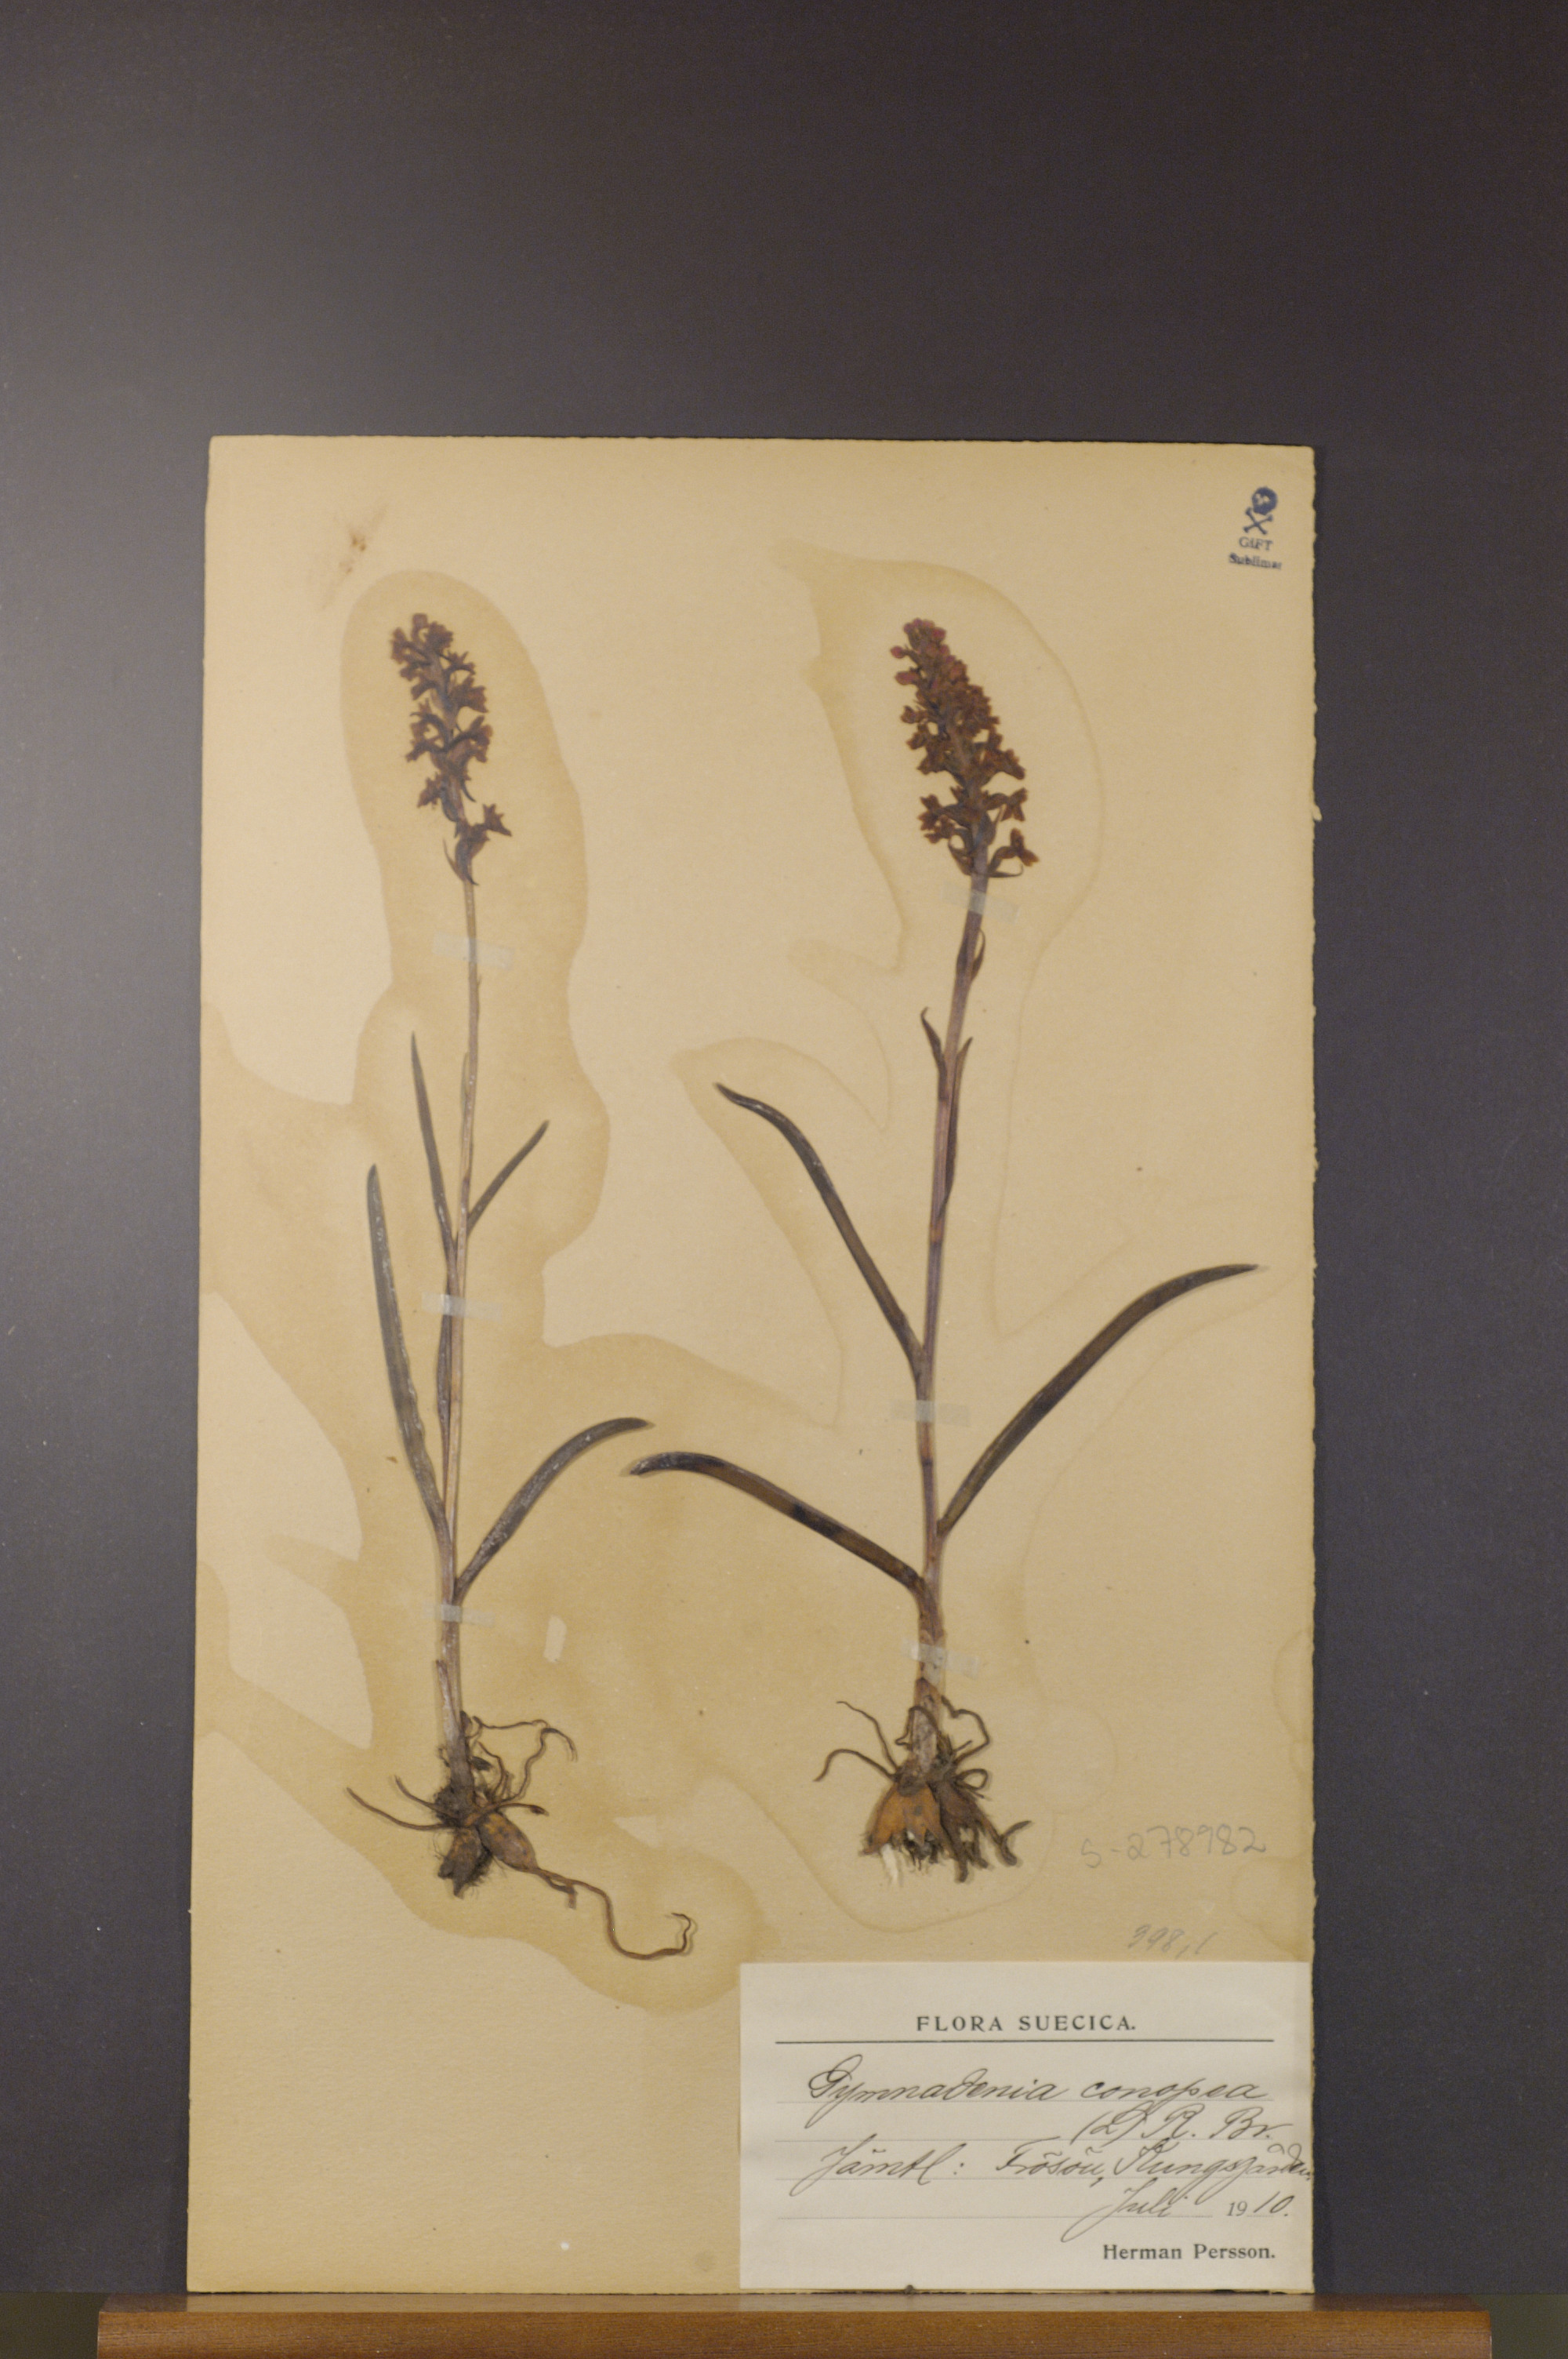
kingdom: Plantae
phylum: Tracheophyta
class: Liliopsida
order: Asparagales
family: Orchidaceae
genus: Gymnadenia
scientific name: Gymnadenia conopsea
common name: Fragrant orchid
